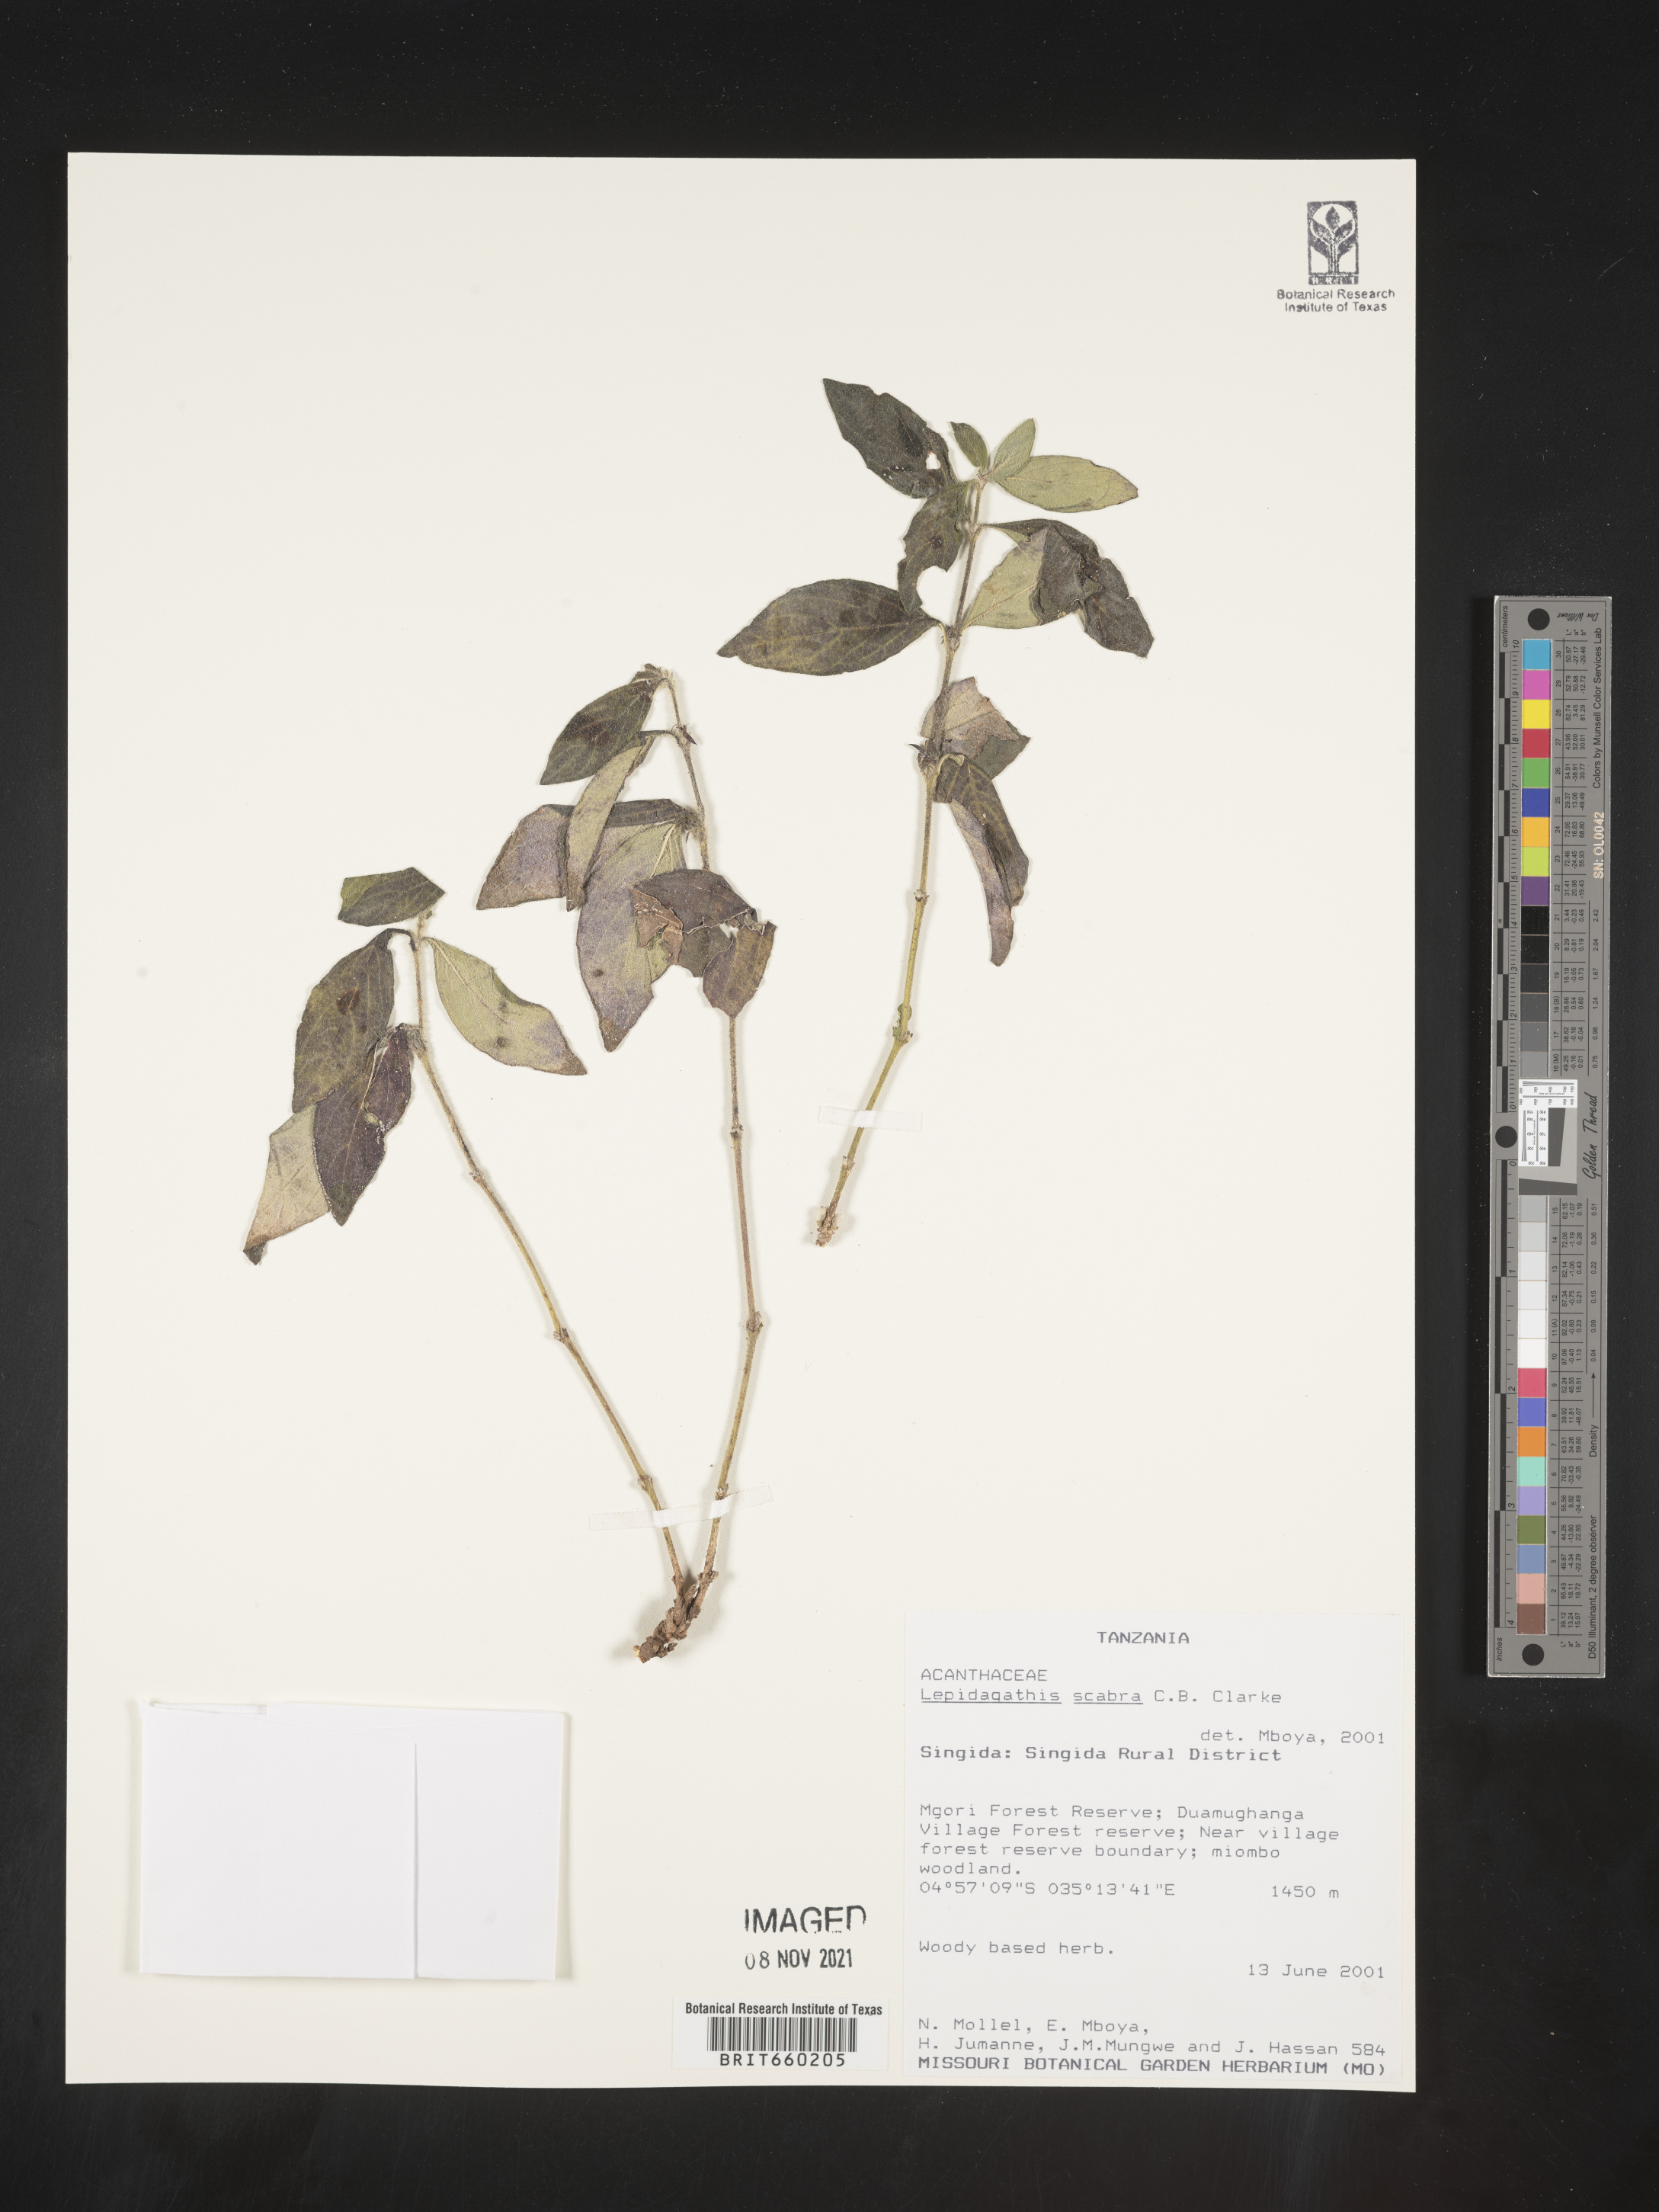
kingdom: Plantae
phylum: Tracheophyta
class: Magnoliopsida
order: Lamiales
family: Acanthaceae
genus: Lepidagathis
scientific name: Lepidagathis
